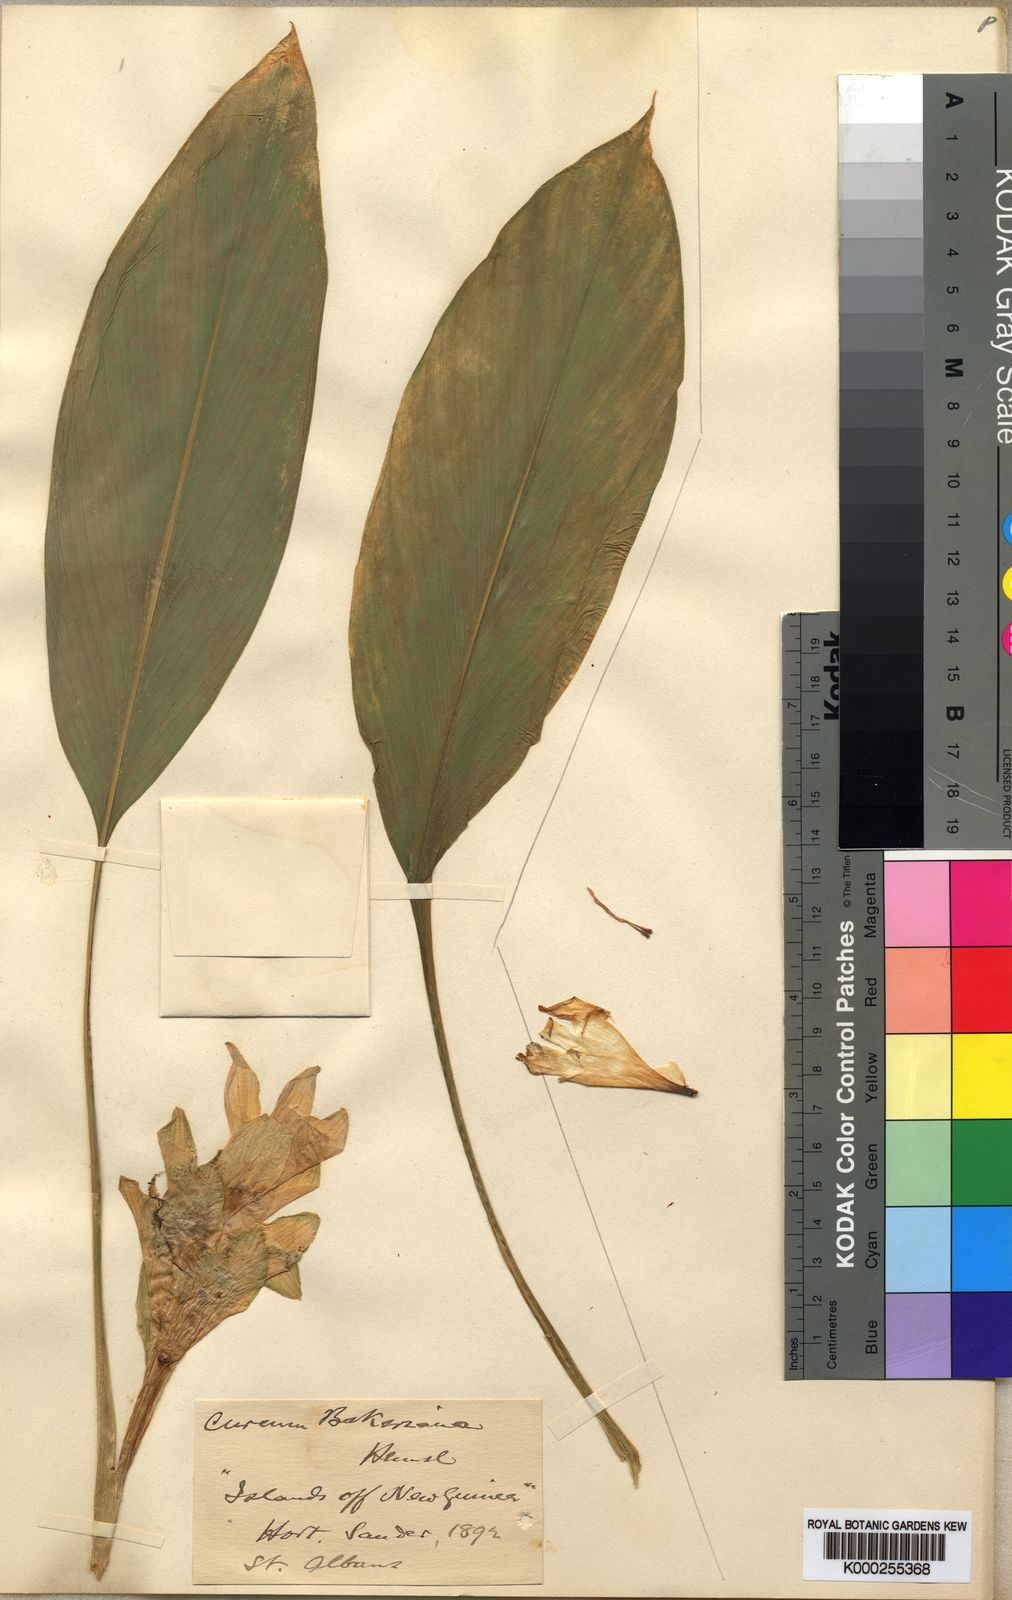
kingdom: Plantae
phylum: Tracheophyta
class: Liliopsida
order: Zingiberales
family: Zingiberaceae
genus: Curcuma
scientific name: Curcuma bakeriana
